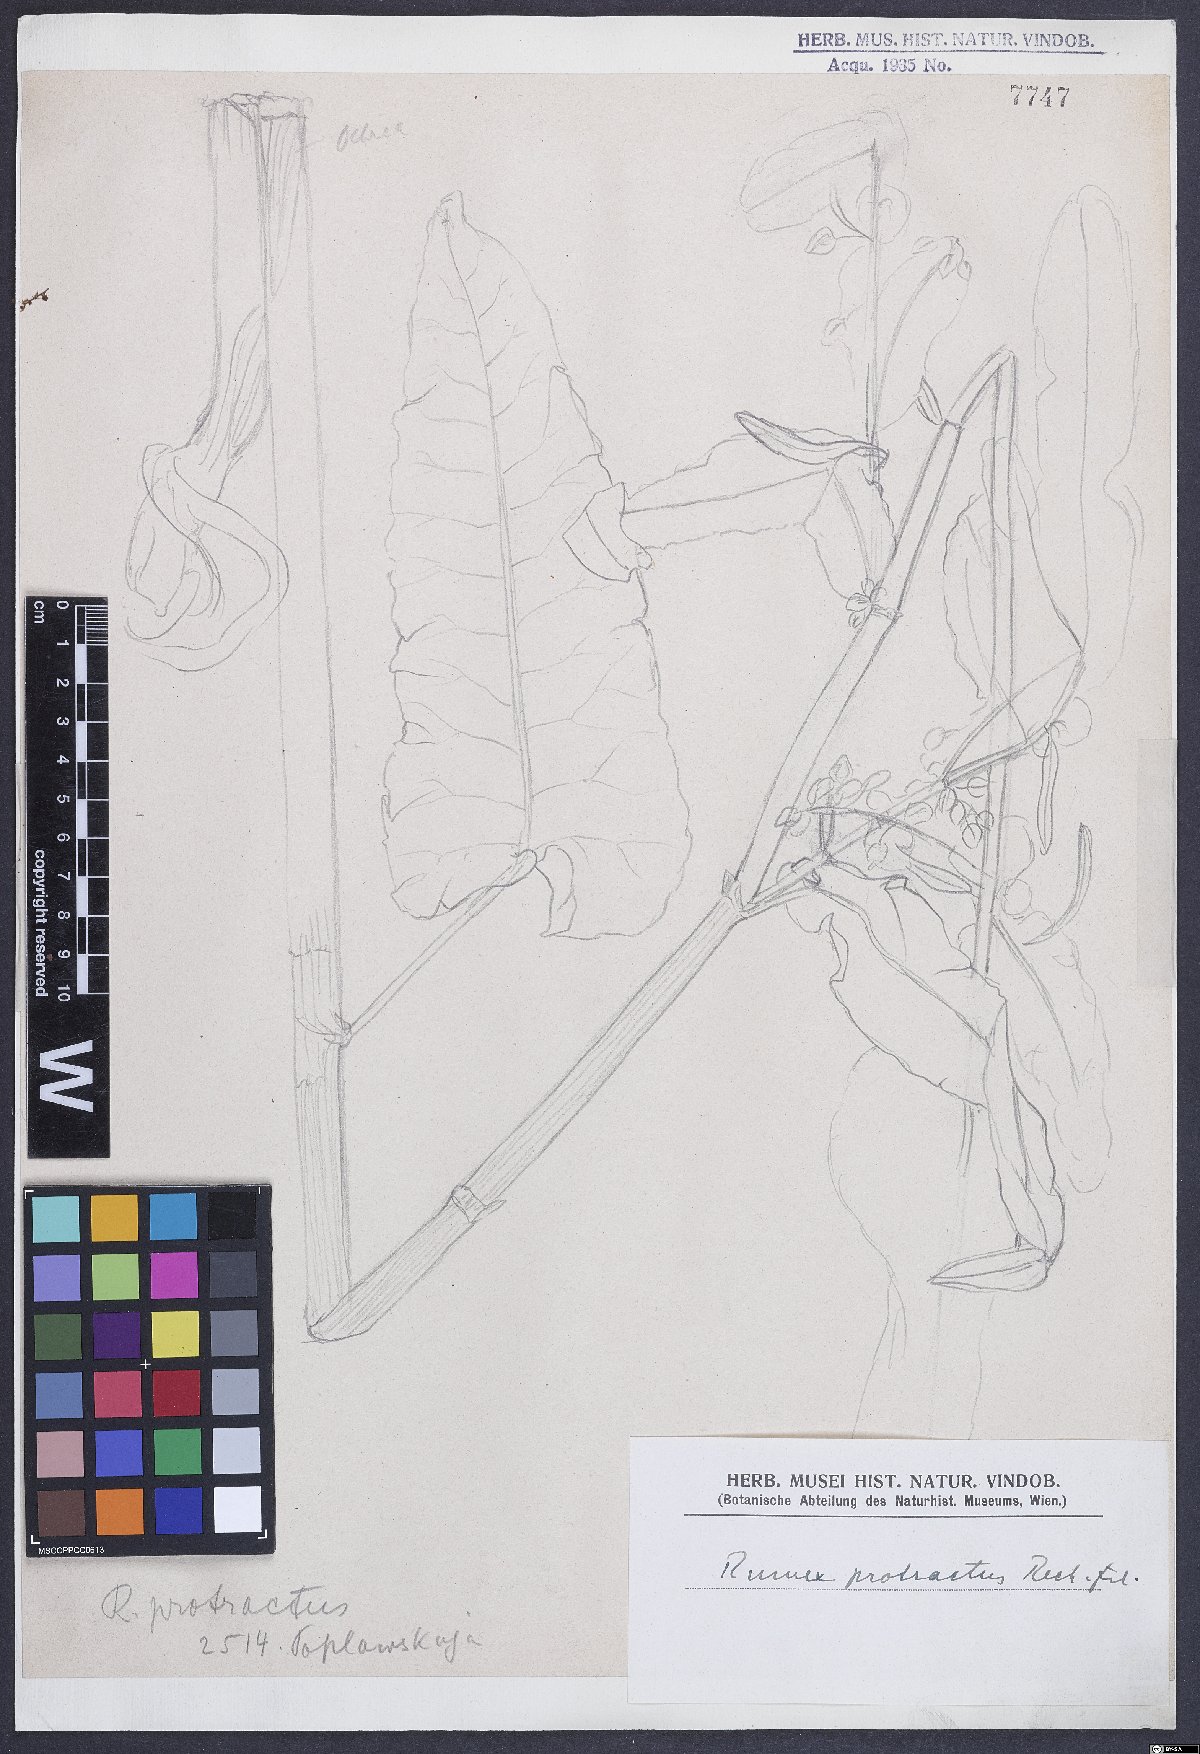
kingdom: Plantae
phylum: Tracheophyta
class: Magnoliopsida
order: Caryophyllales
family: Polygonaceae
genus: Rumex
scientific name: Rumex aquaticus
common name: Scottish dock
